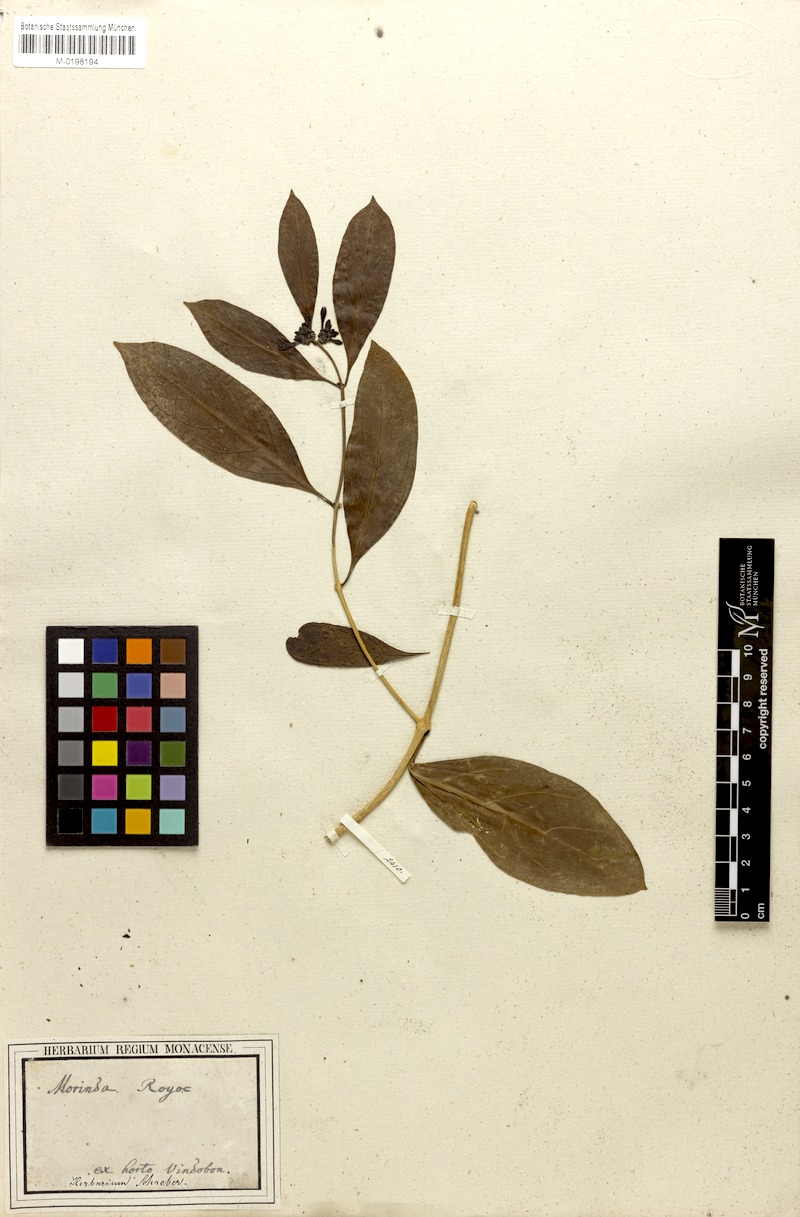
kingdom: Plantae
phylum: Tracheophyta
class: Magnoliopsida
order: Gentianales
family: Rubiaceae
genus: Morinda
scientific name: Morinda royoc
